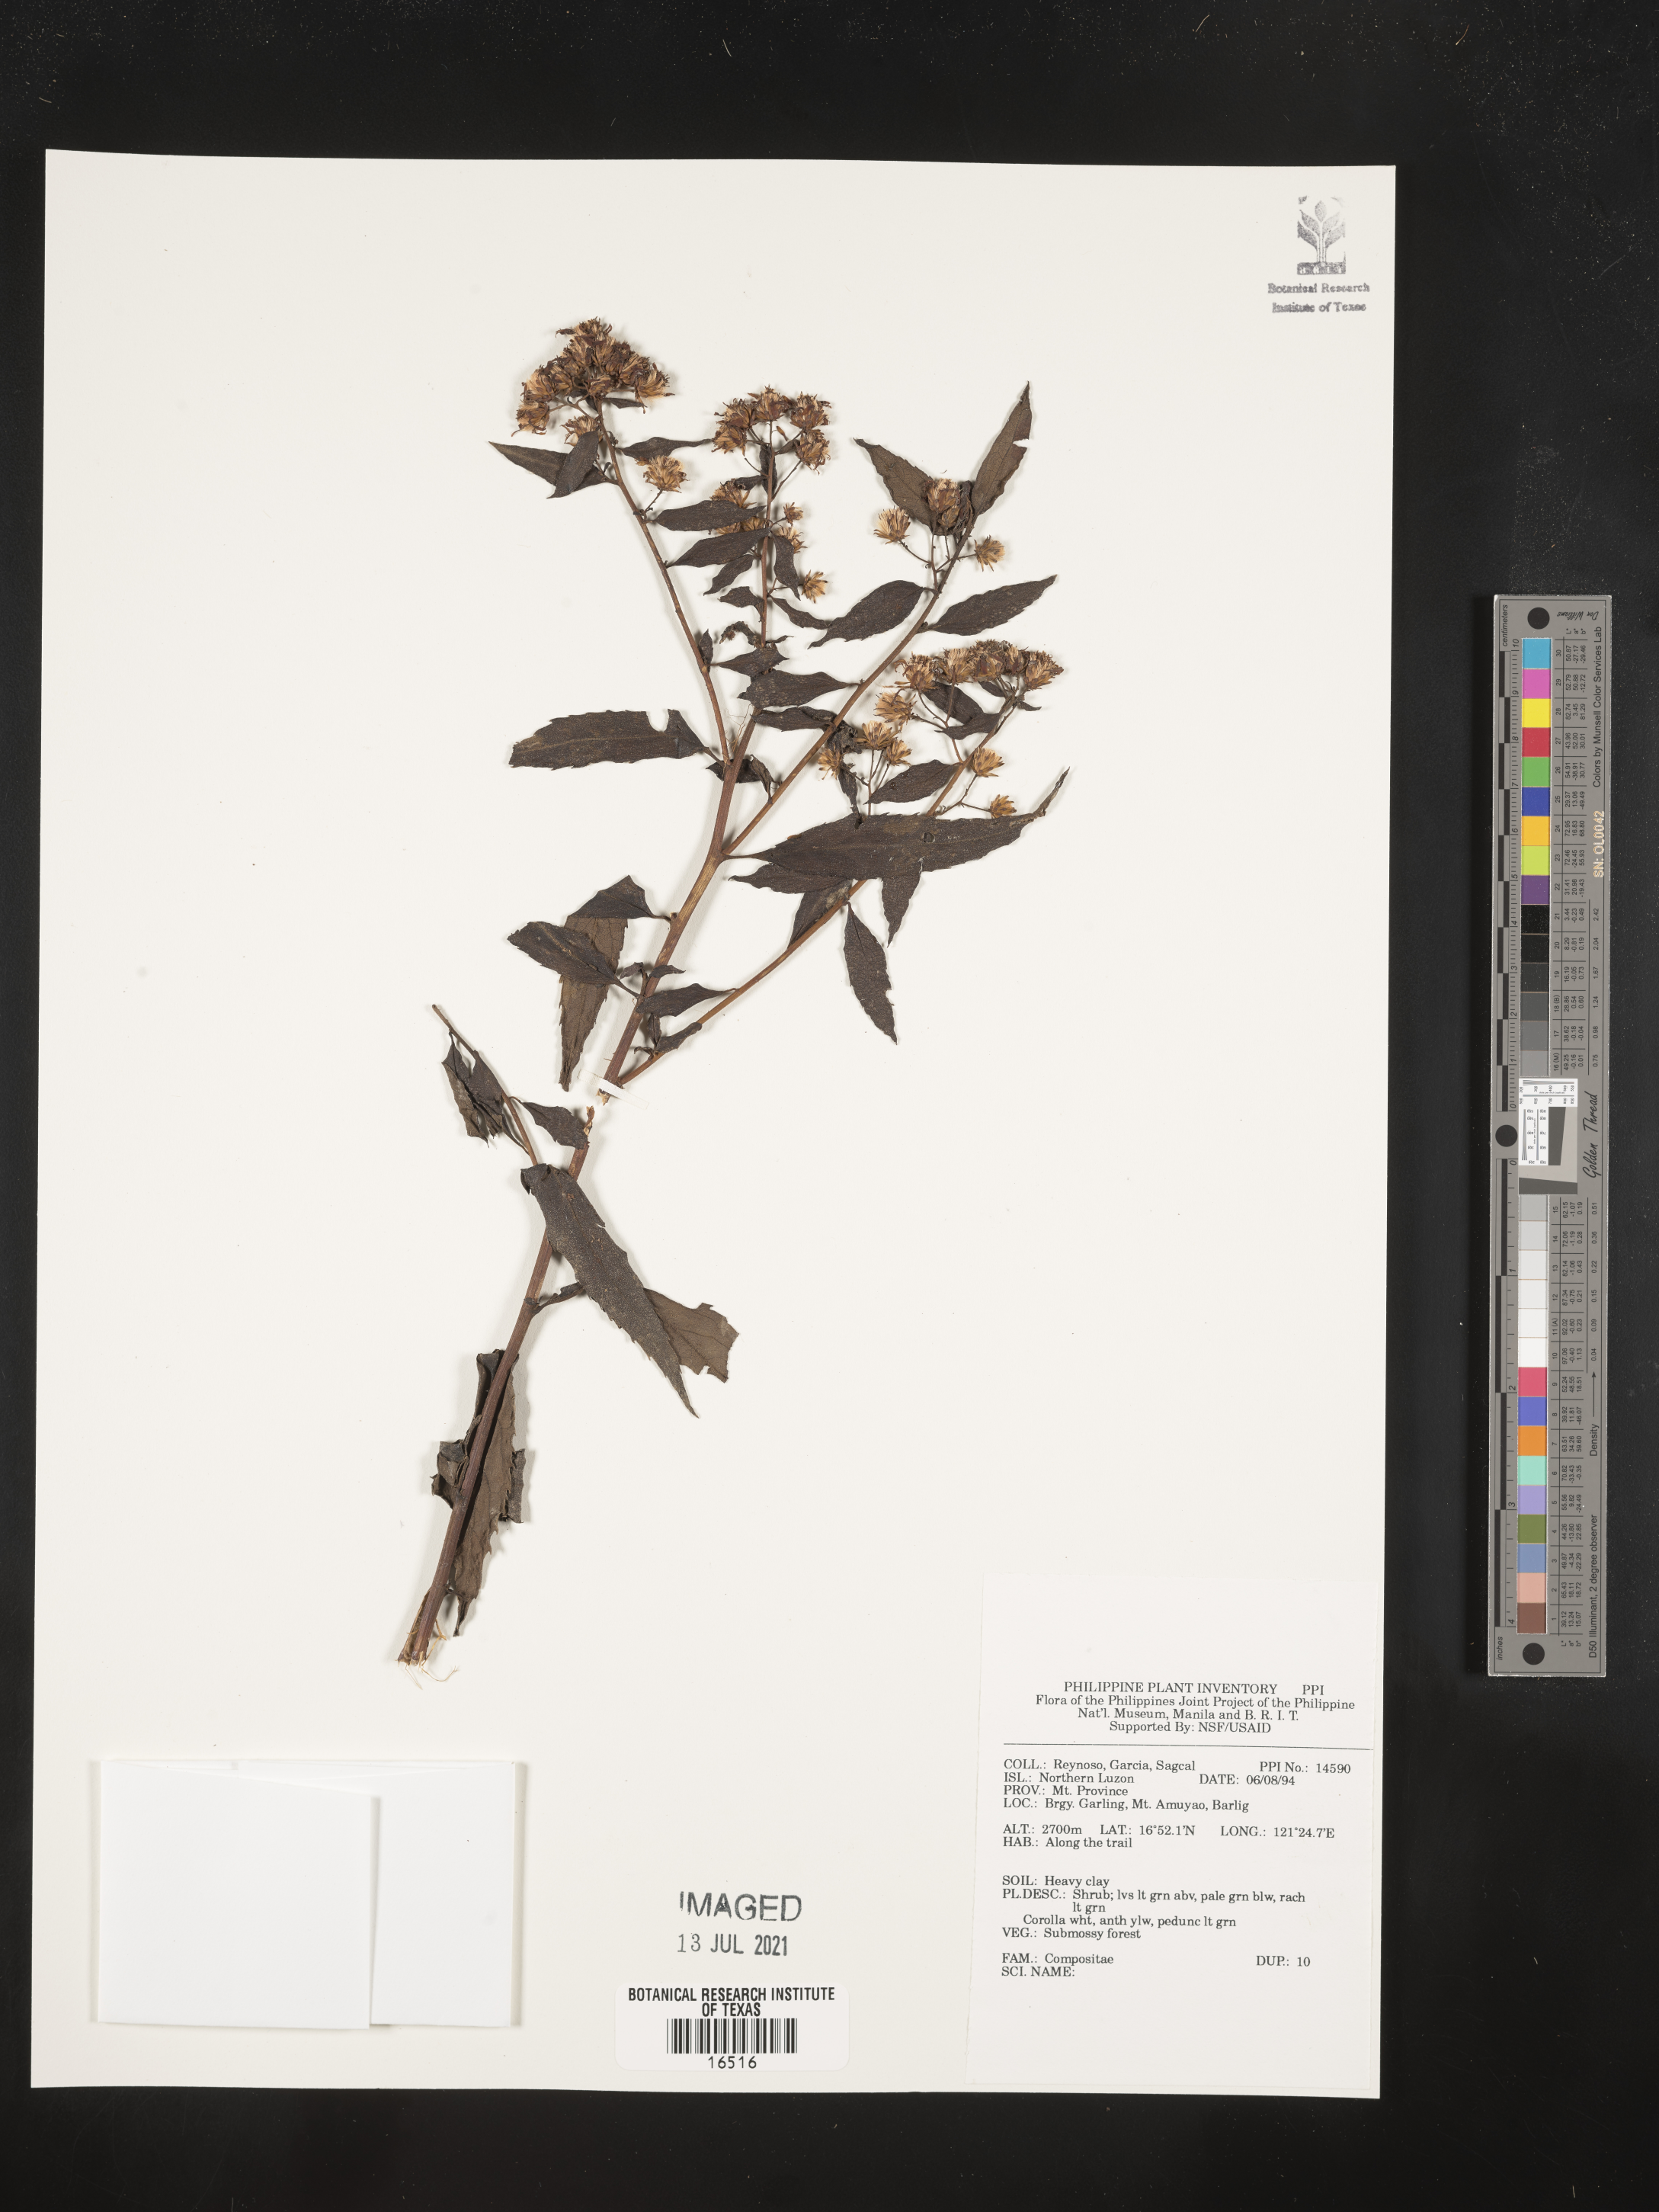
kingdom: Plantae
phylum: Tracheophyta
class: Magnoliopsida
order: Asterales
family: Asteraceae
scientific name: Asteraceae
